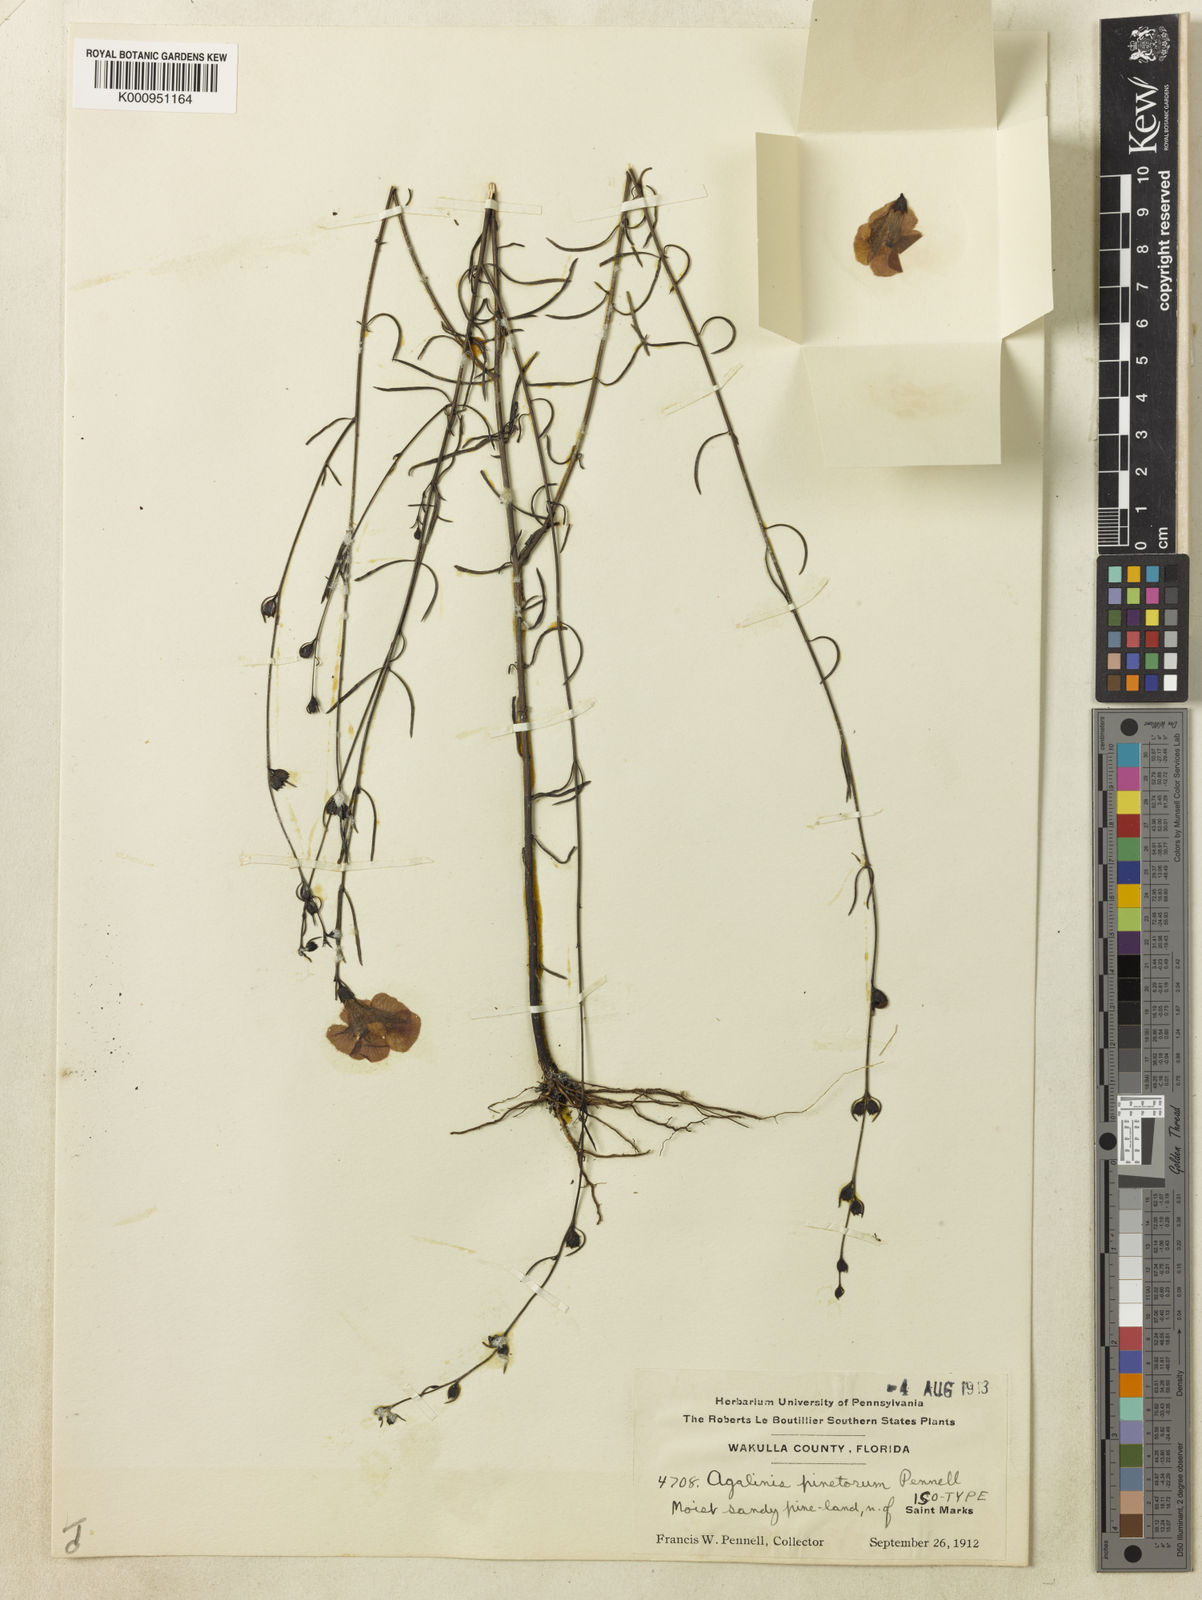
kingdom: Plantae
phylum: Tracheophyta
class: Magnoliopsida
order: Lamiales
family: Orobanchaceae
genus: Agalinis
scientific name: Agalinis harperi
